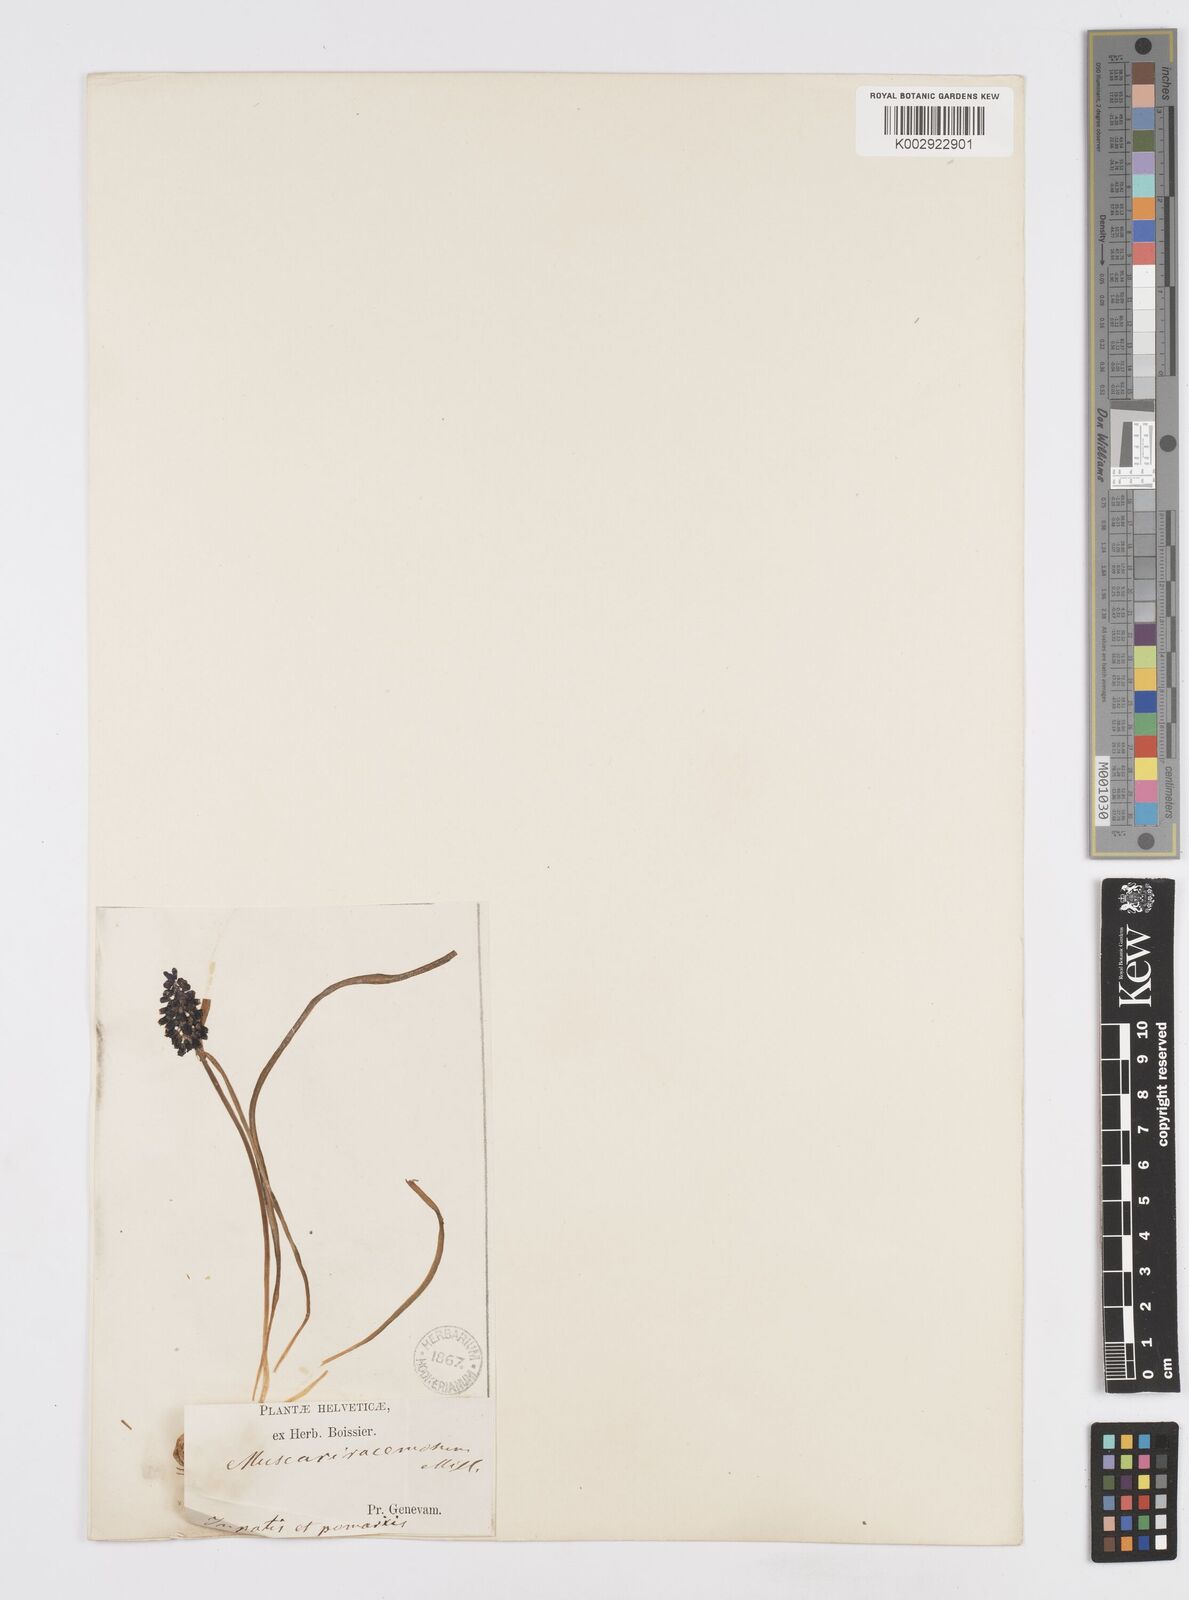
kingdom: Plantae
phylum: Tracheophyta
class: Liliopsida
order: Asparagales
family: Asparagaceae
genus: Muscarimia
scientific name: Muscarimia muscari
